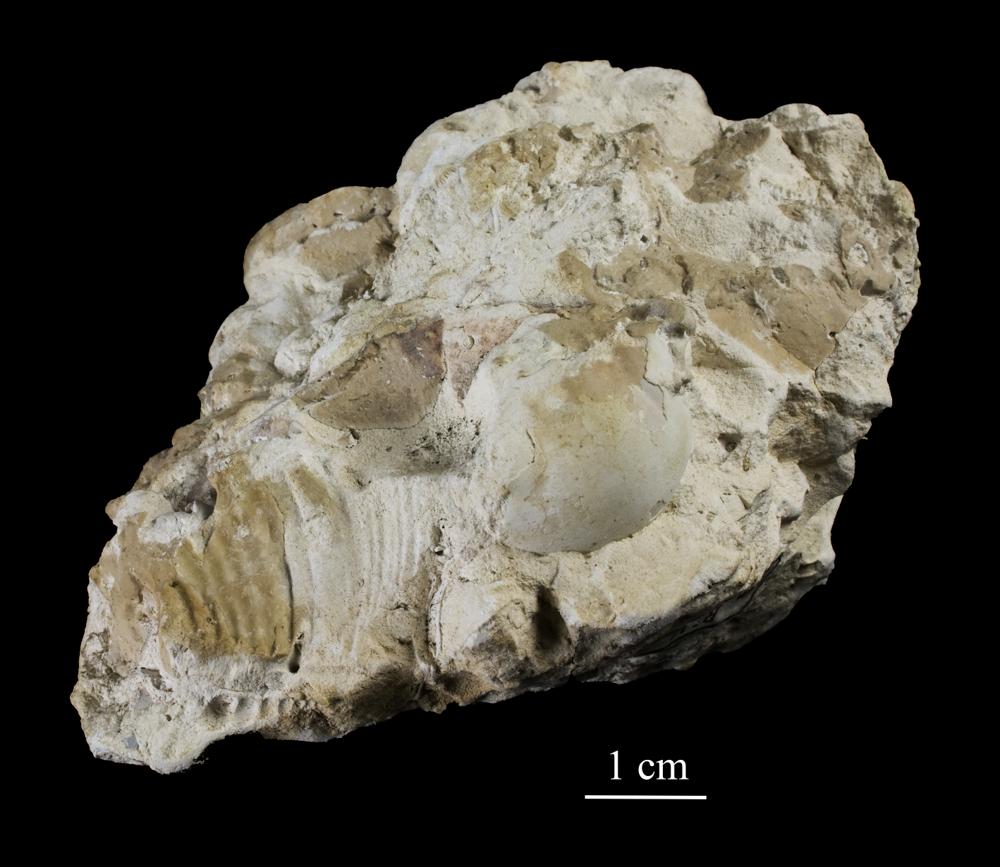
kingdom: Animalia
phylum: Arthropoda
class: Trilobita
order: Asaphida
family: Asaphidae
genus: Isotelus
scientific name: Isotelus
